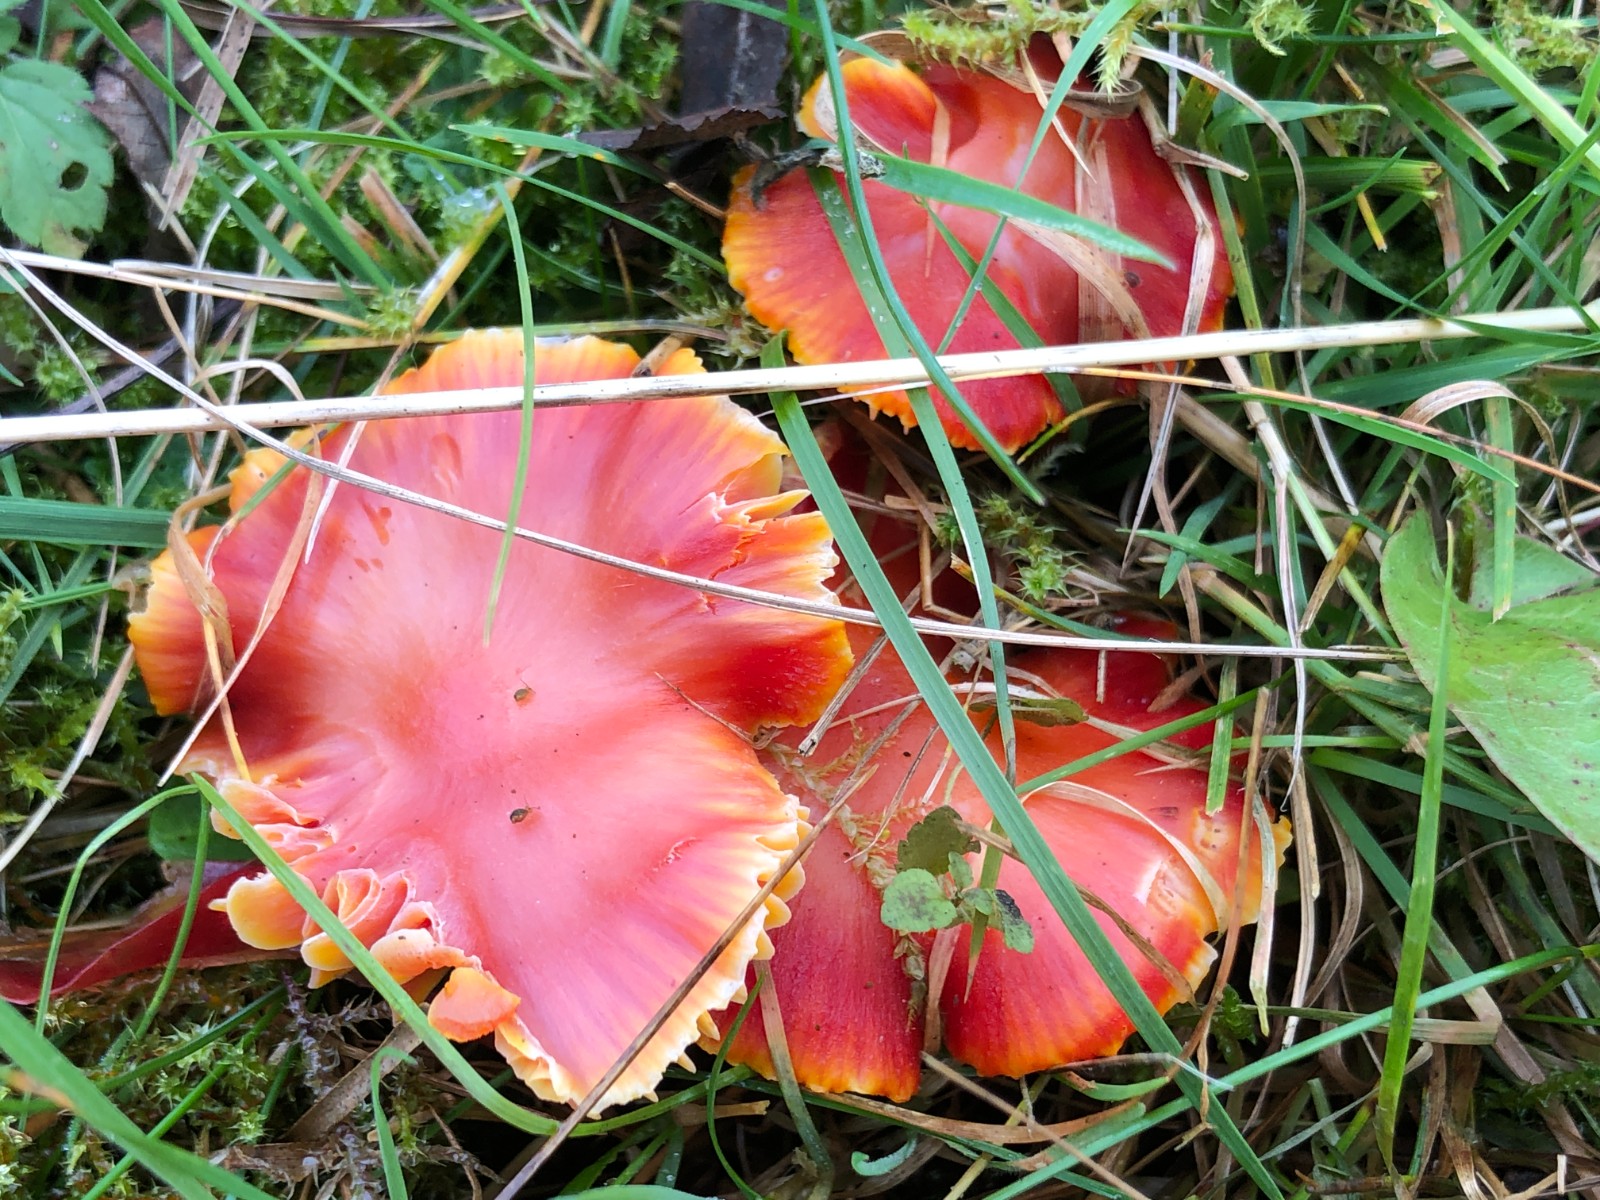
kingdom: Fungi
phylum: Basidiomycota
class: Agaricomycetes
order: Agaricales
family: Hygrophoraceae
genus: Hygrocybe
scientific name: Hygrocybe coccinea
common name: cinnober-vokshat
